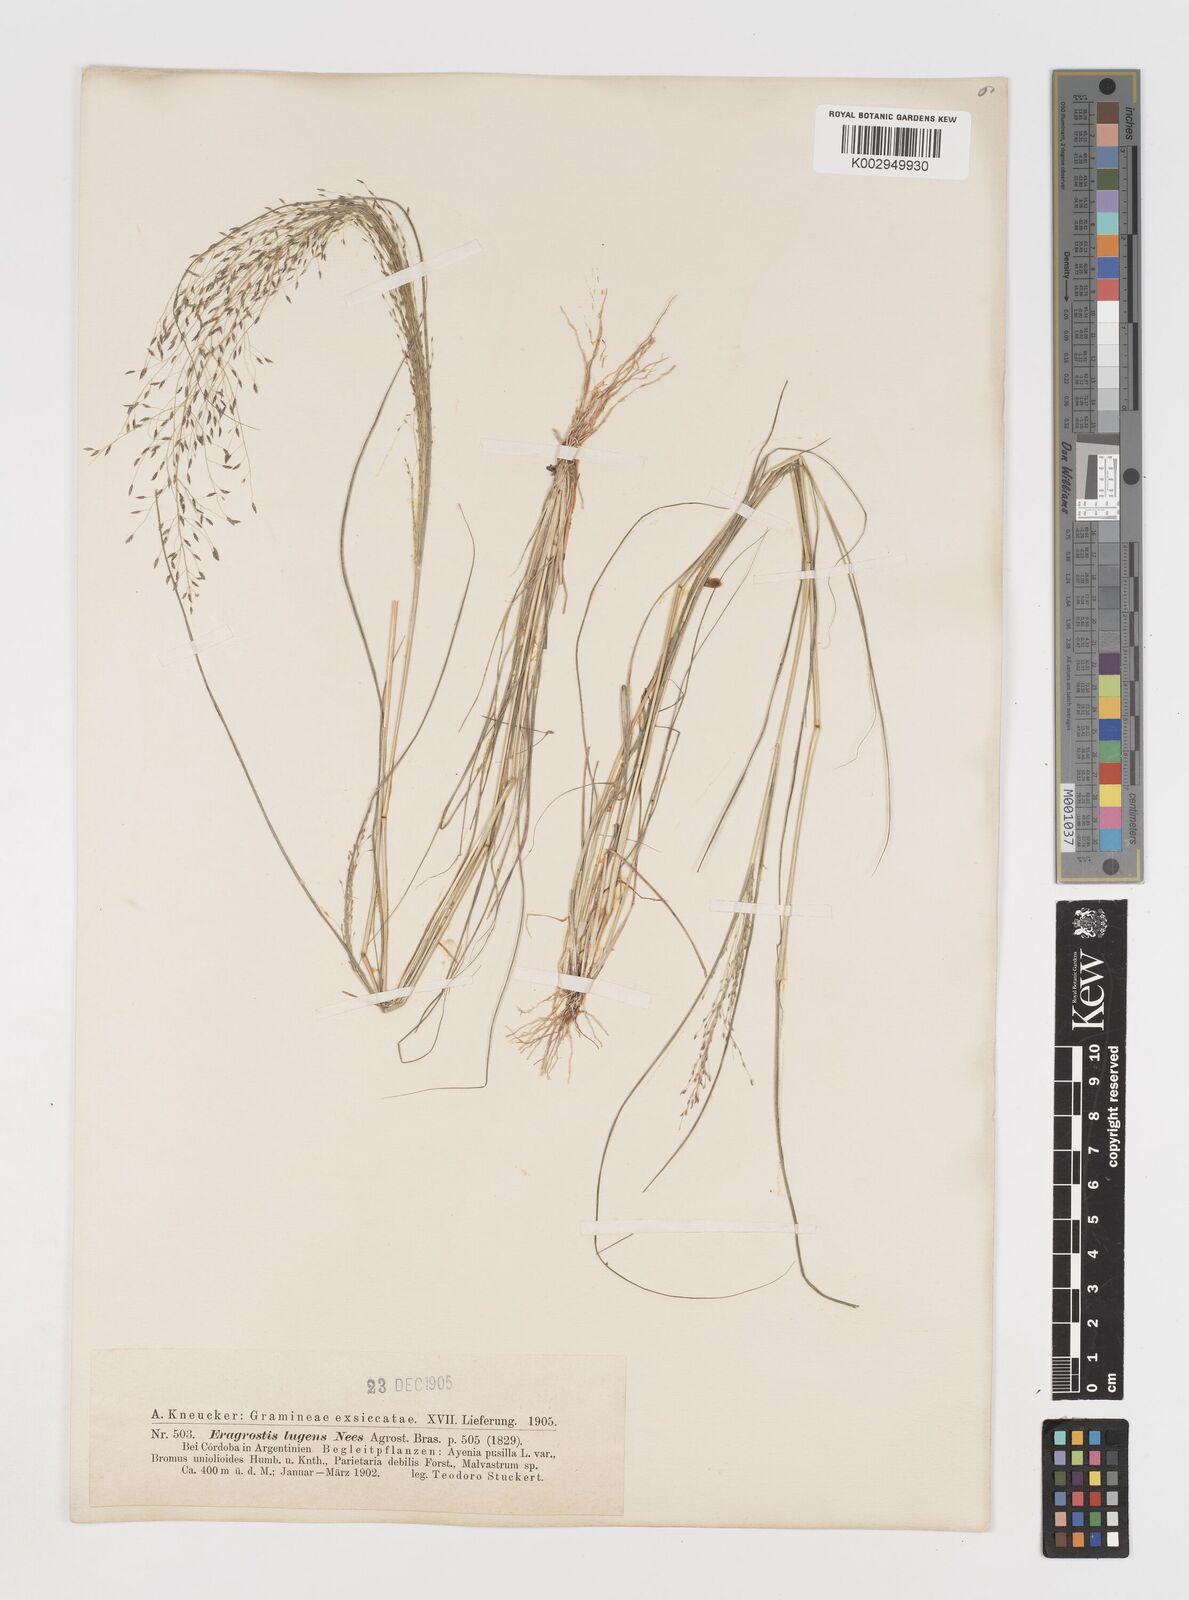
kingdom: Plantae
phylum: Tracheophyta
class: Liliopsida
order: Poales
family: Poaceae
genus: Eragrostis
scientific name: Eragrostis lugens
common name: Mourning love grass
